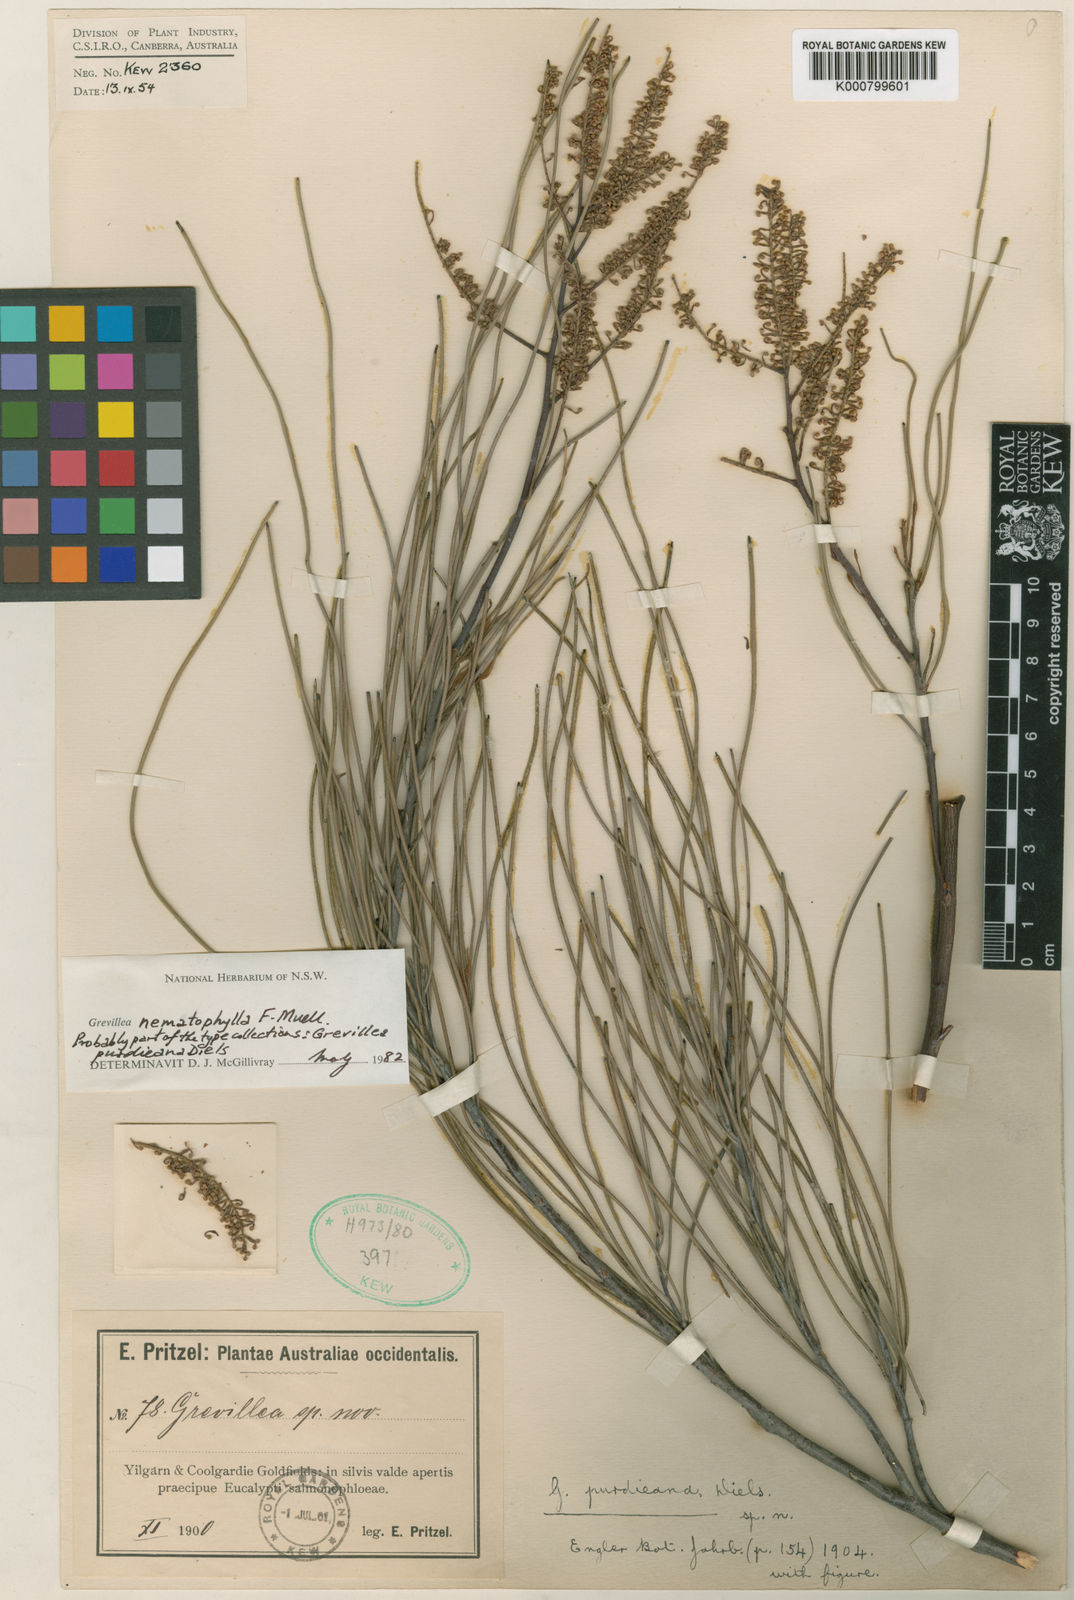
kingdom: Plantae
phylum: Tracheophyta
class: Magnoliopsida
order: Proteales
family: Proteaceae
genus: Grevillea
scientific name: Grevillea nematophylla
